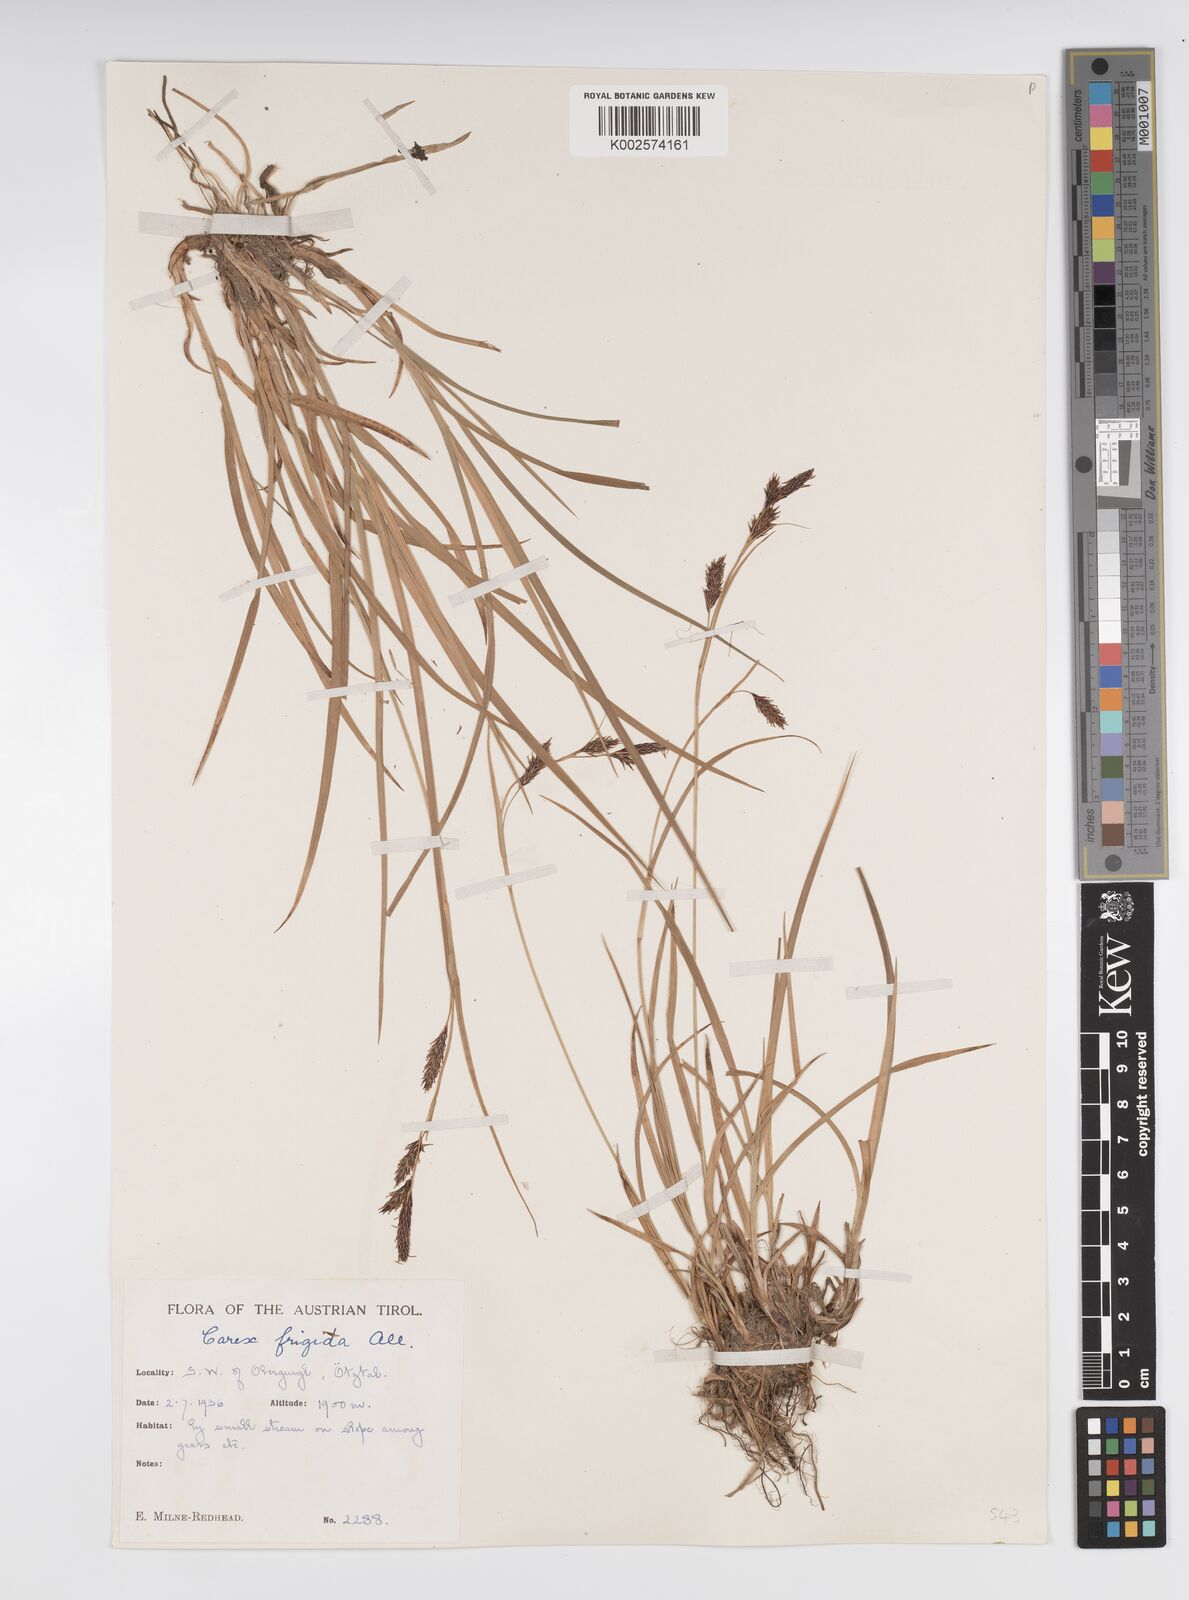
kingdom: Plantae
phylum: Tracheophyta
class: Liliopsida
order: Poales
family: Cyperaceae
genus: Carex
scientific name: Carex frigida
